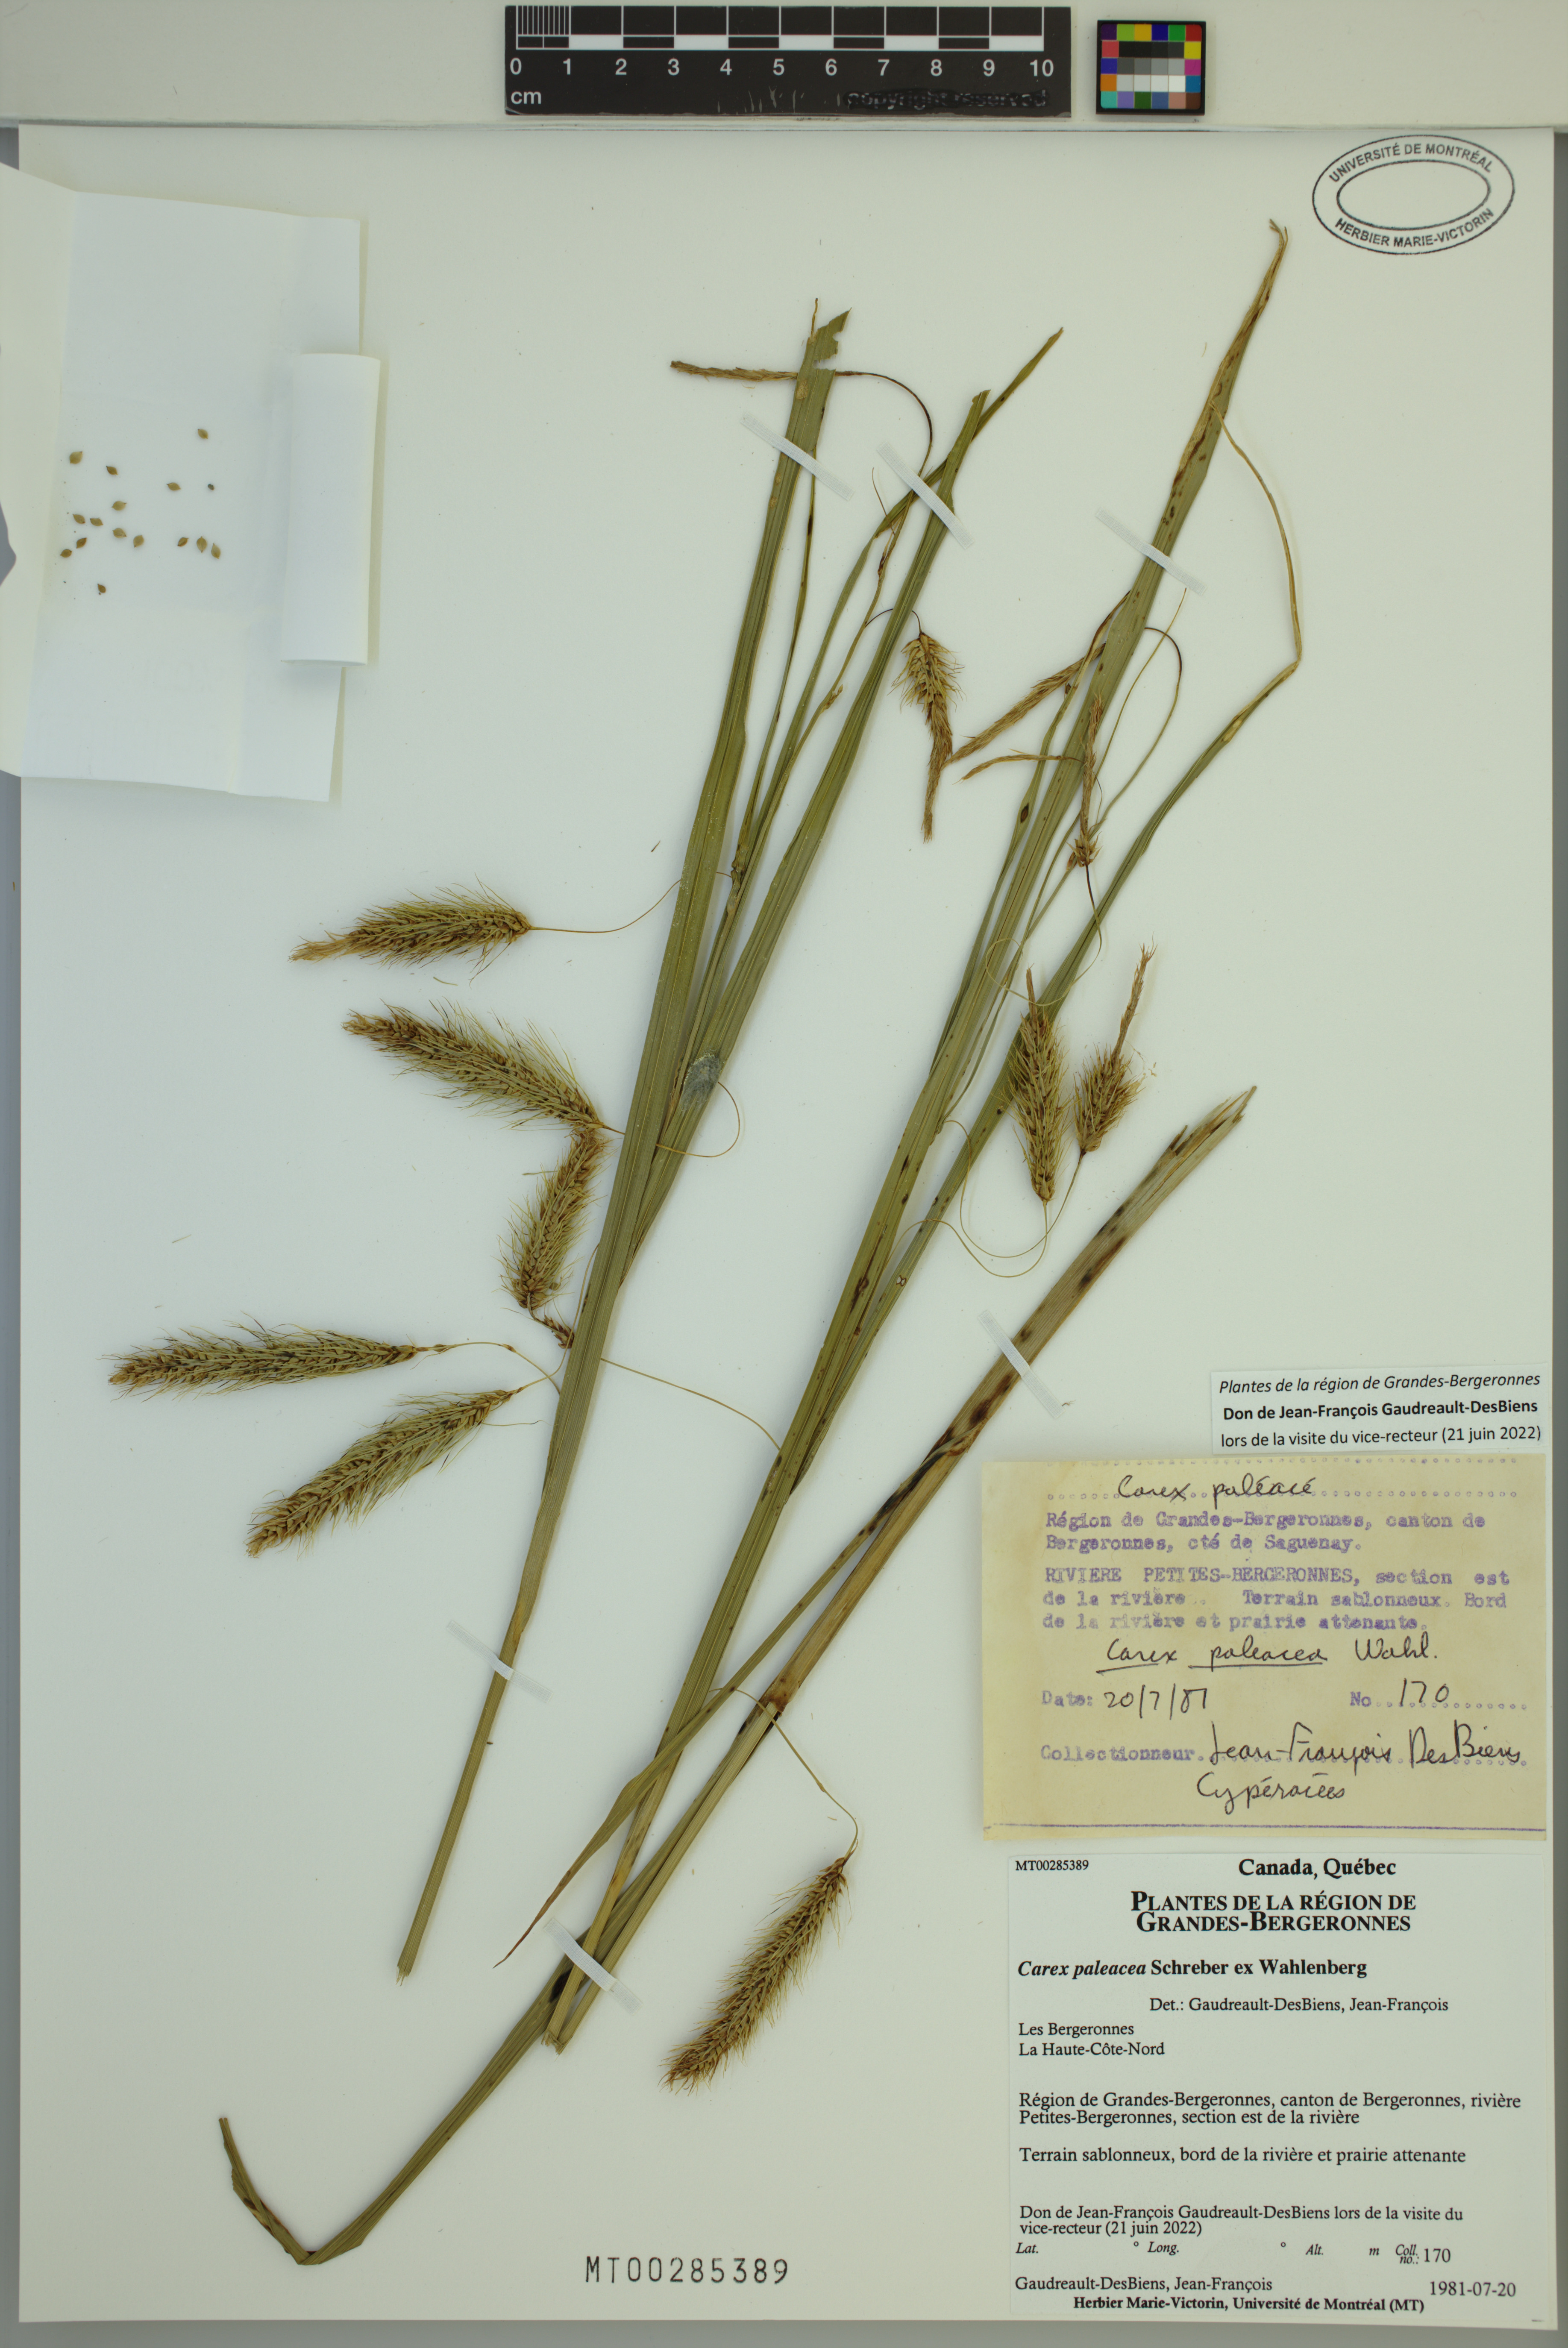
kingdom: Plantae
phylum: Tracheophyta
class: Liliopsida
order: Poales
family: Cyperaceae
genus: Carex
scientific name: Carex paleacea
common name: Chaffy sedge
